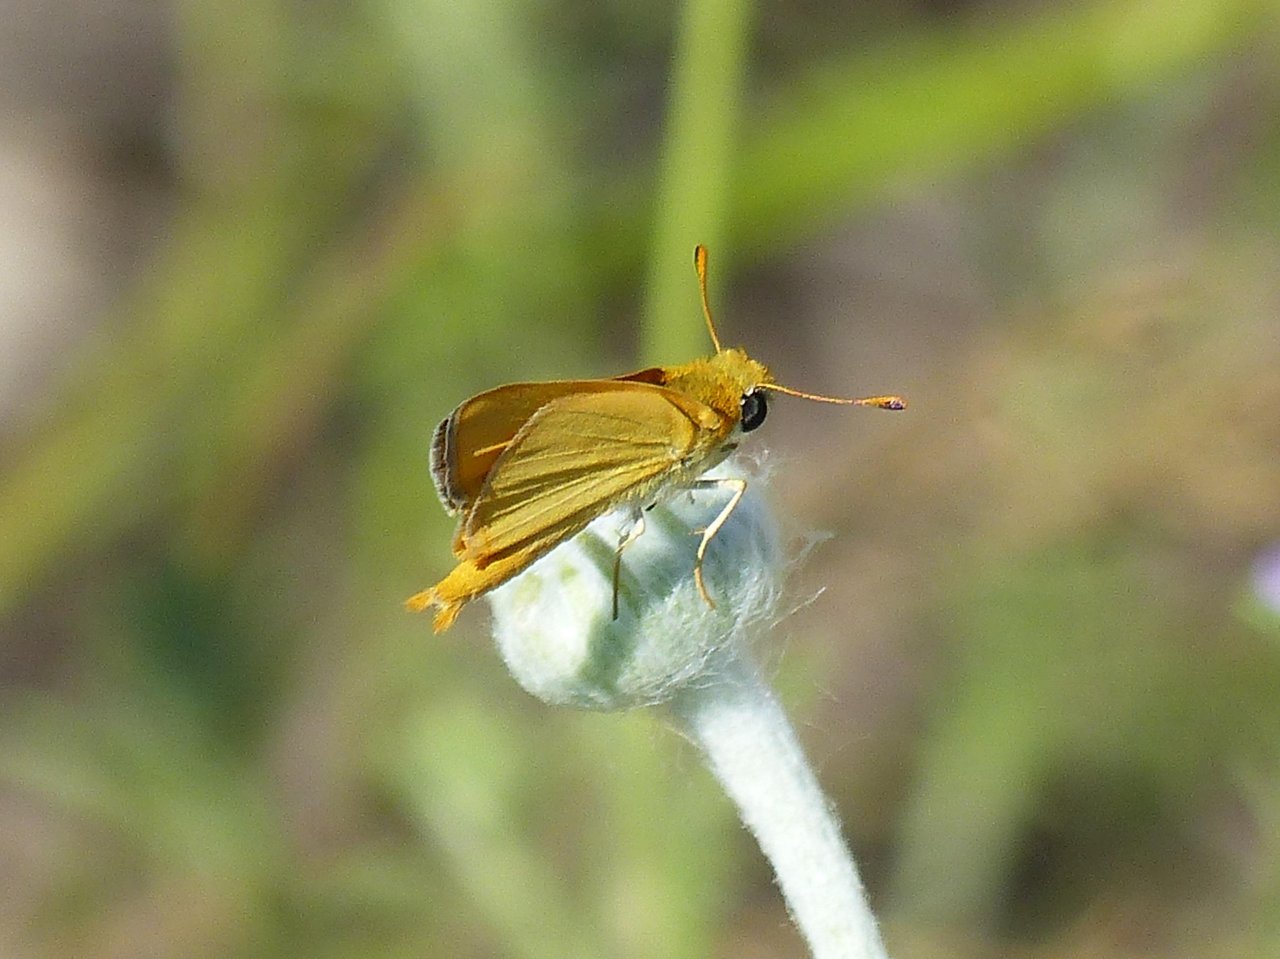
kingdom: Animalia
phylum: Arthropoda
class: Insecta
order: Lepidoptera
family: Hesperiidae
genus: Copaeodes
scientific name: Copaeodes aurantiaca
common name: Orange Skipperling
